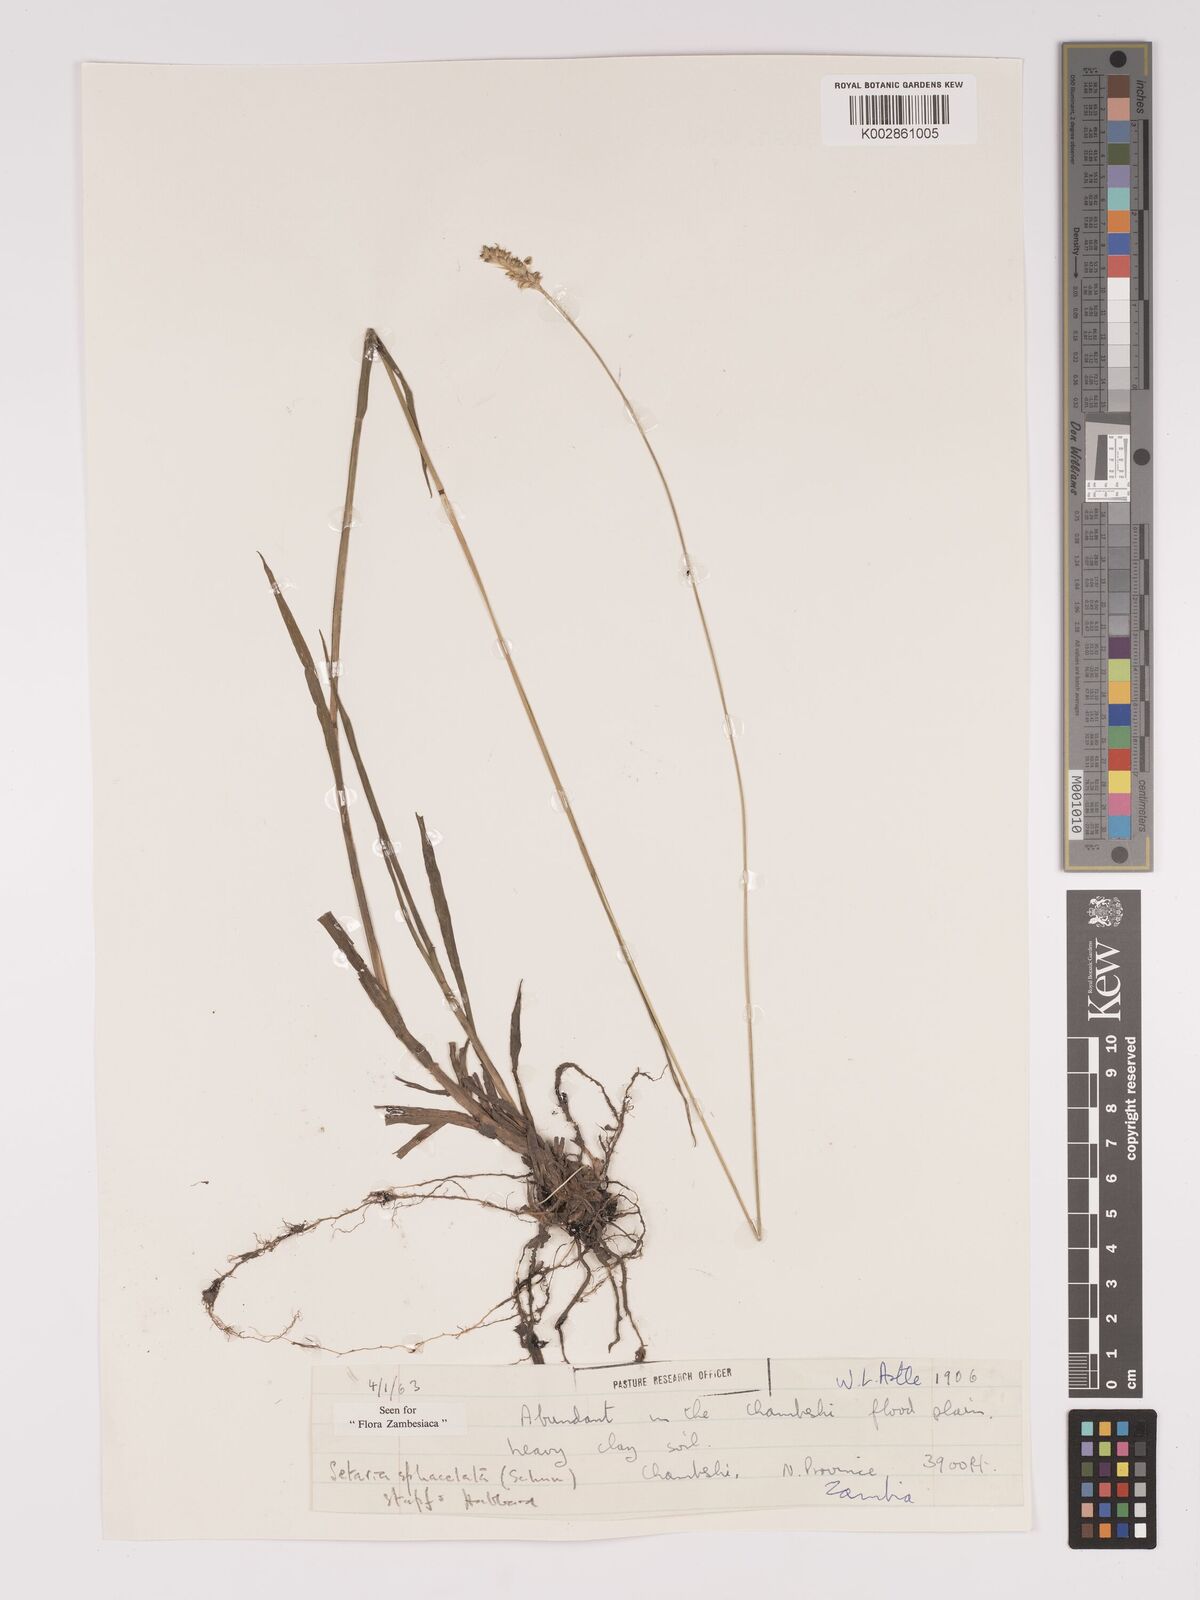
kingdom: Plantae
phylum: Tracheophyta
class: Liliopsida
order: Poales
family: Poaceae
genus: Setaria
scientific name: Setaria sphacelata
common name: African bristlegrass
